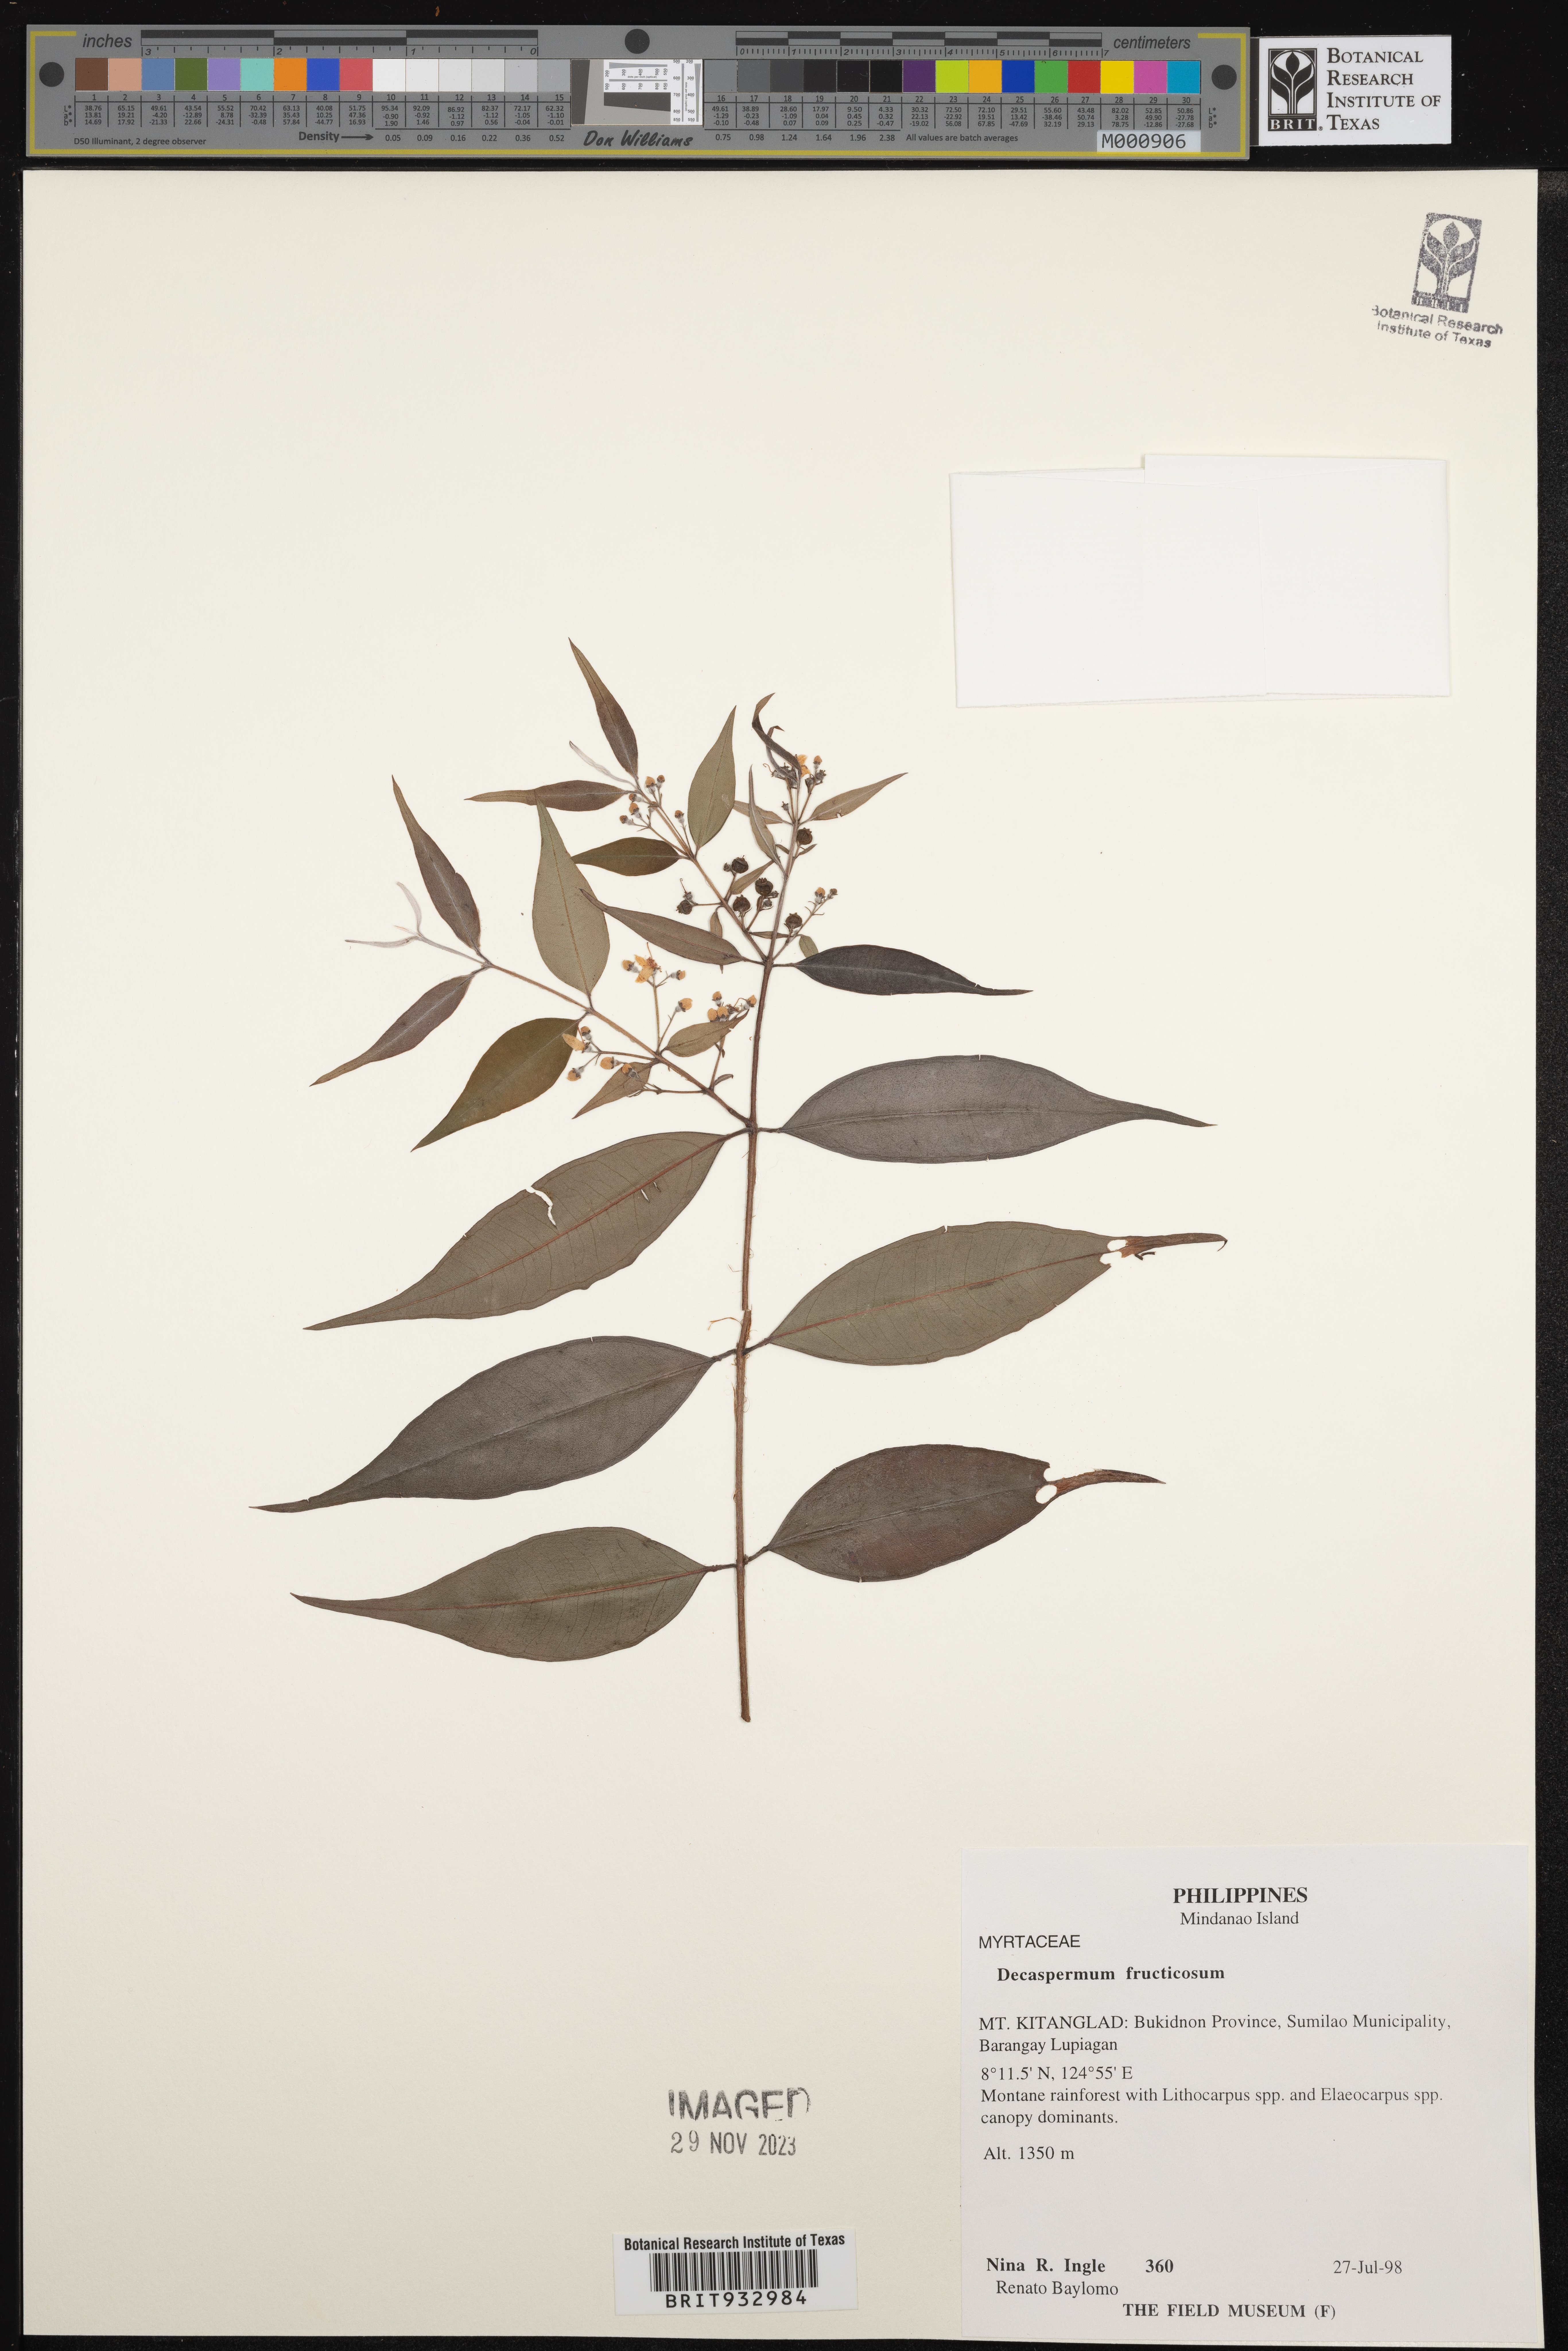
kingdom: Plantae
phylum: Tracheophyta
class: Magnoliopsida
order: Myrtales
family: Myrtaceae
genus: Decaspermum
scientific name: Decaspermum
